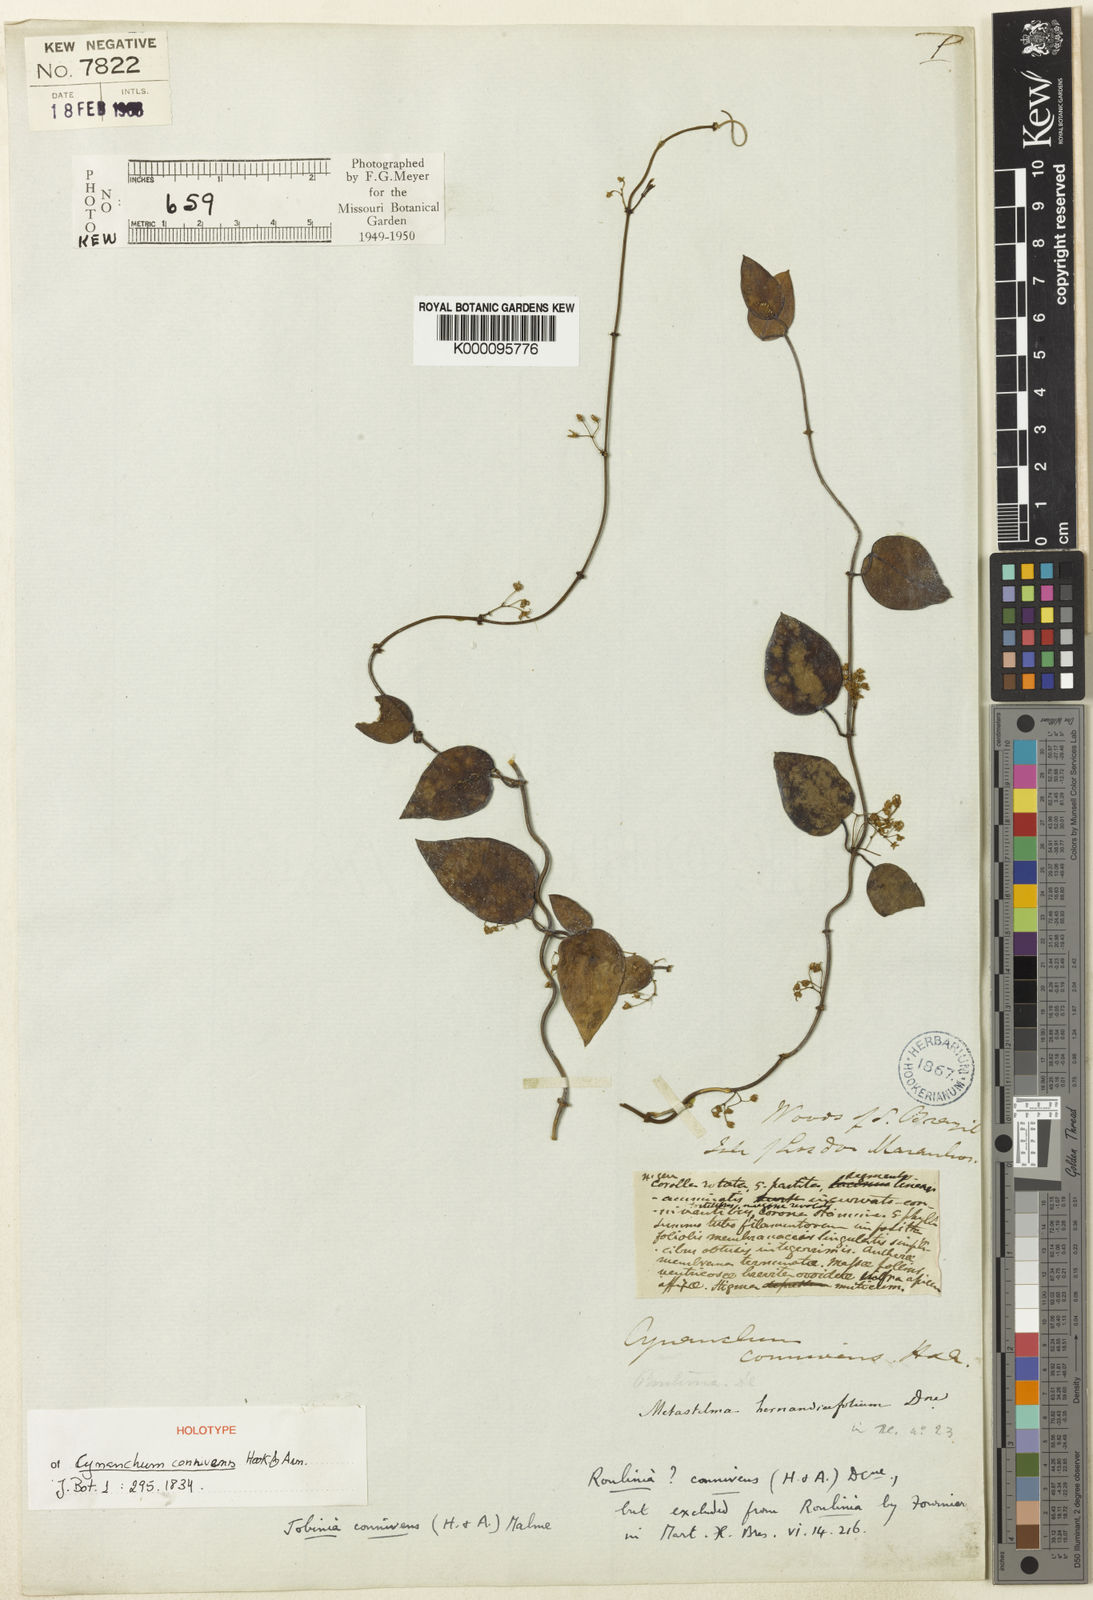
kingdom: Plantae
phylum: Tracheophyta
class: Magnoliopsida
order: Gentianales
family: Apocynaceae
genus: Jobinia
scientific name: Jobinia connivens
